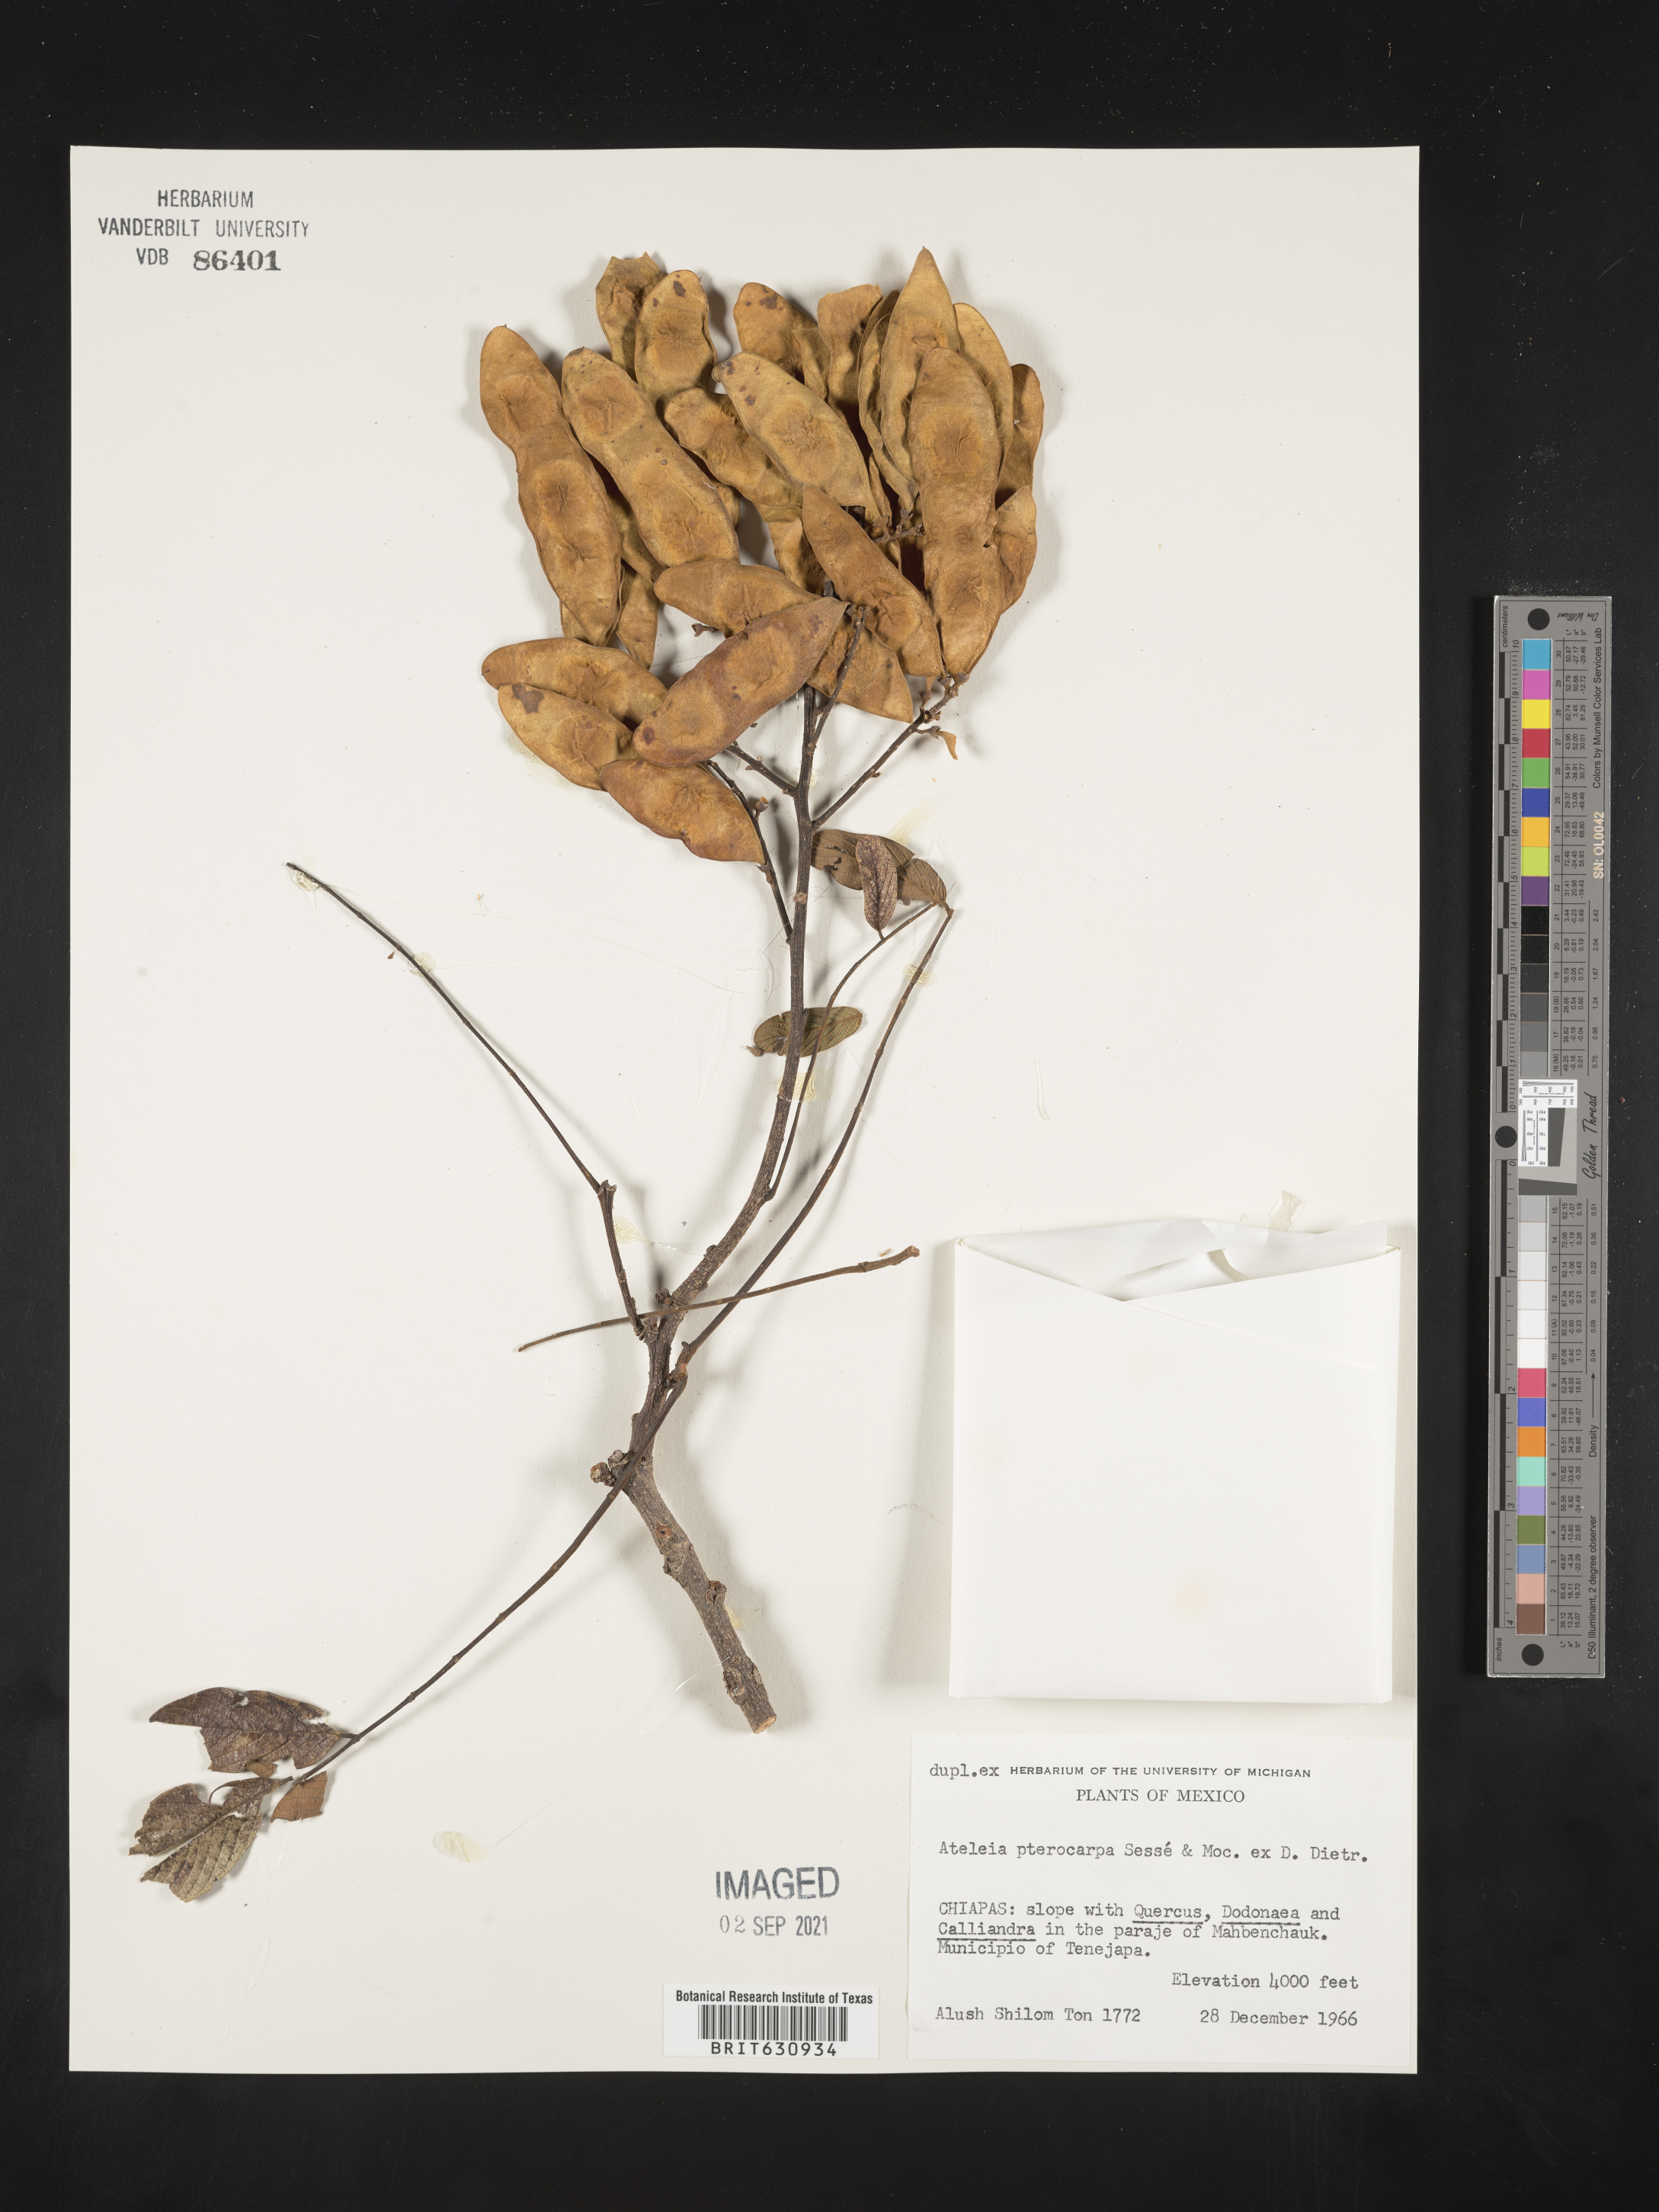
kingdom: Plantae
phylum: Tracheophyta
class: Magnoliopsida
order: Fabales
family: Fabaceae
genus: Ateleia
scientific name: Ateleia
